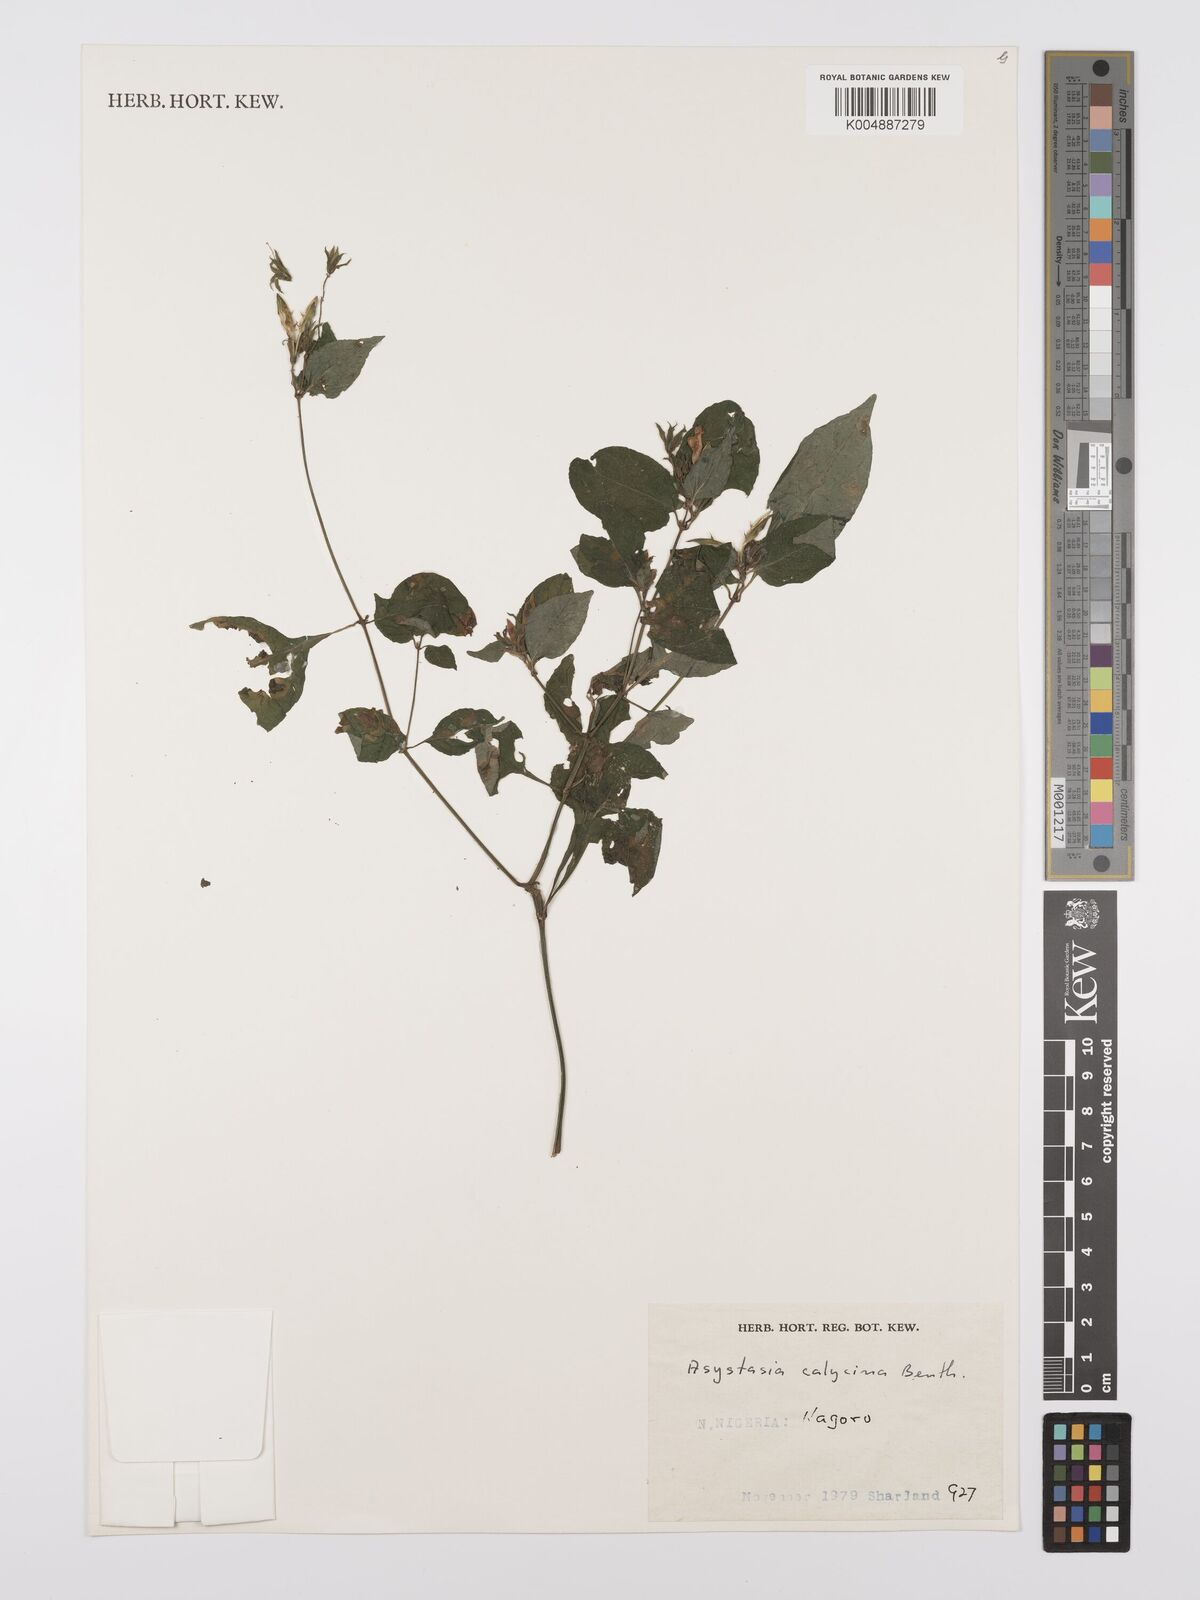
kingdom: Plantae
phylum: Tracheophyta
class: Magnoliopsida
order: Lamiales
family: Acanthaceae
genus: Asystasia
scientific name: Asystasia buettneri
